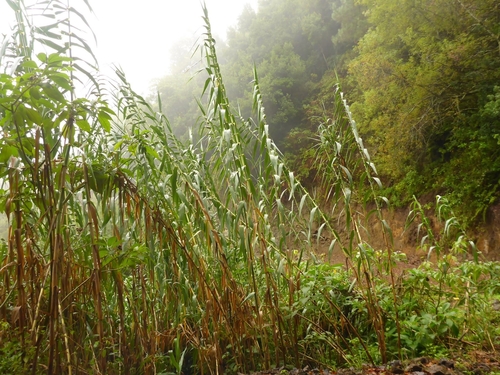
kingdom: Plantae
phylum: Tracheophyta
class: Liliopsida
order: Poales
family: Poaceae
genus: Arundo
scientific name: Arundo donax
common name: Giant reed
